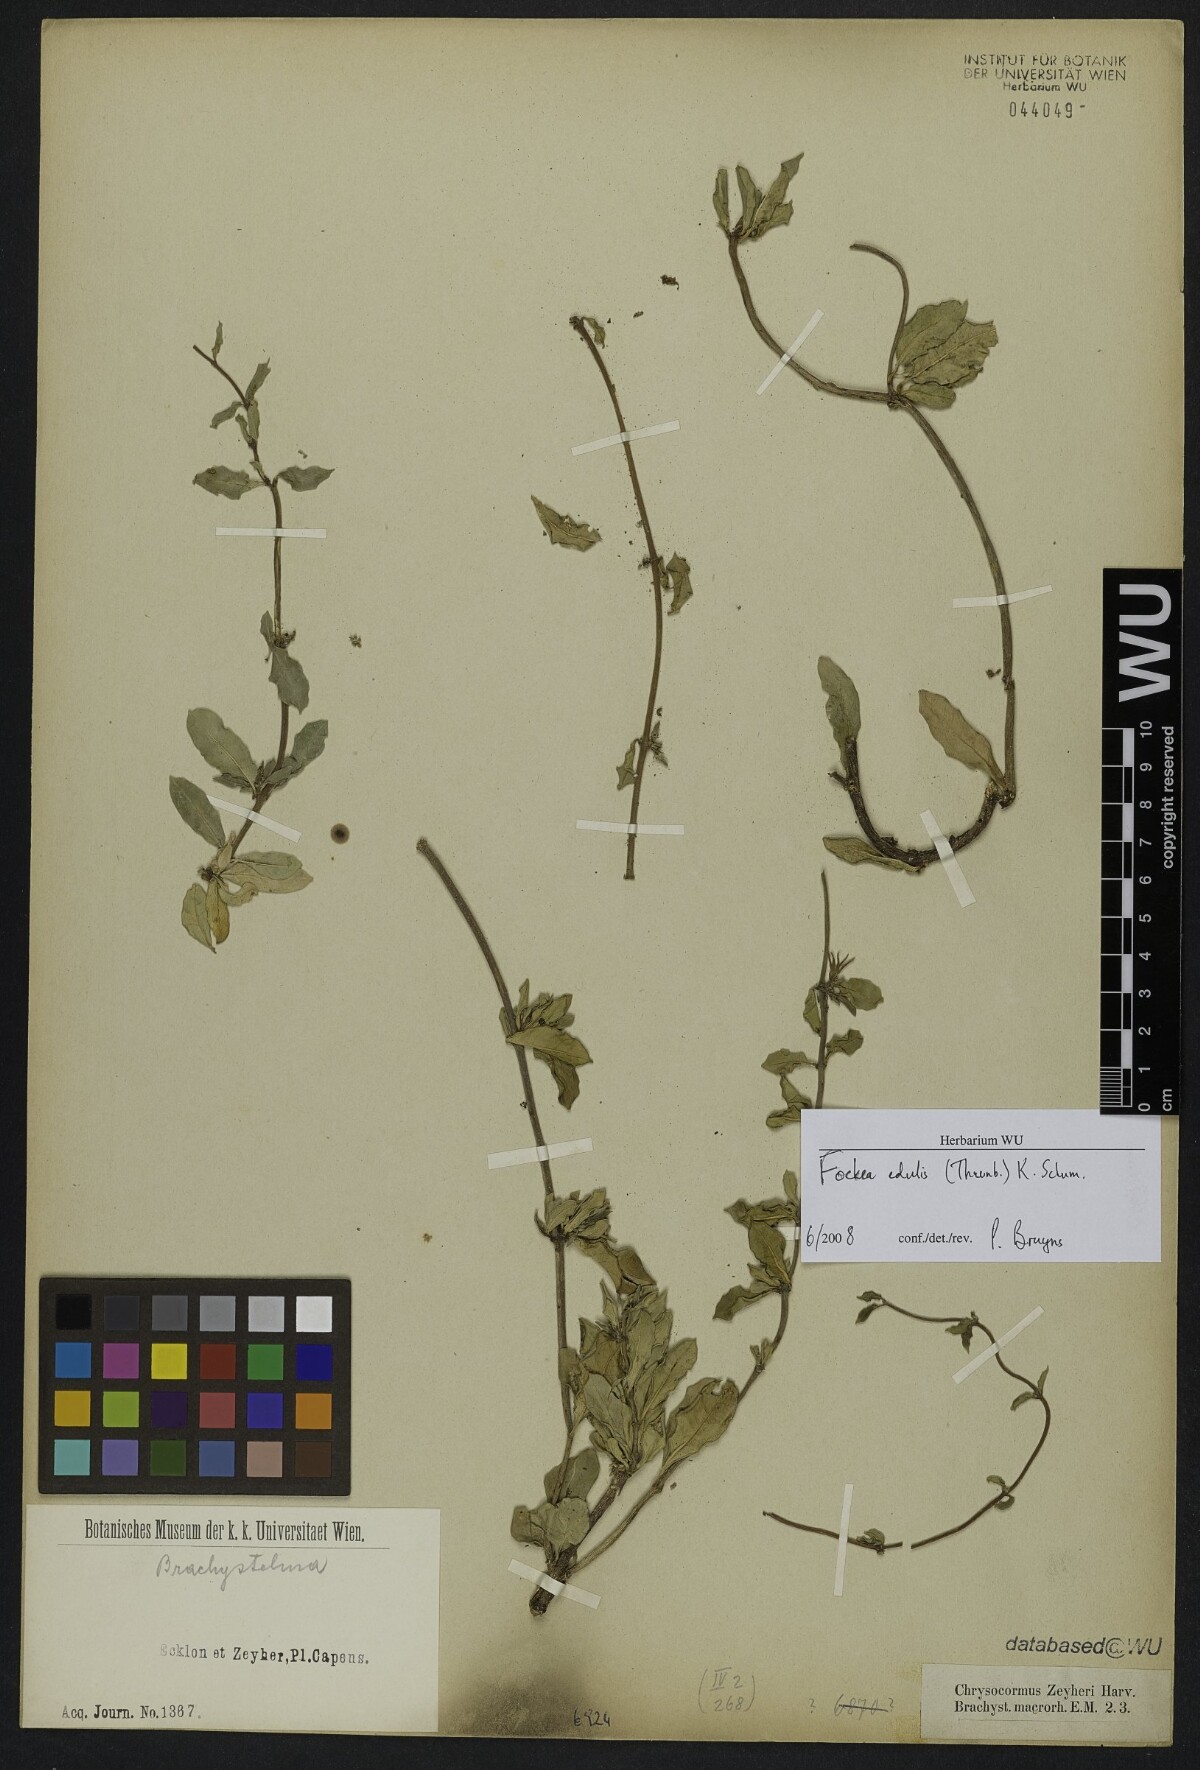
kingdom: Plantae
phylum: Tracheophyta
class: Magnoliopsida
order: Gentianales
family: Apocynaceae
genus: Fockea
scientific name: Fockea edulis
